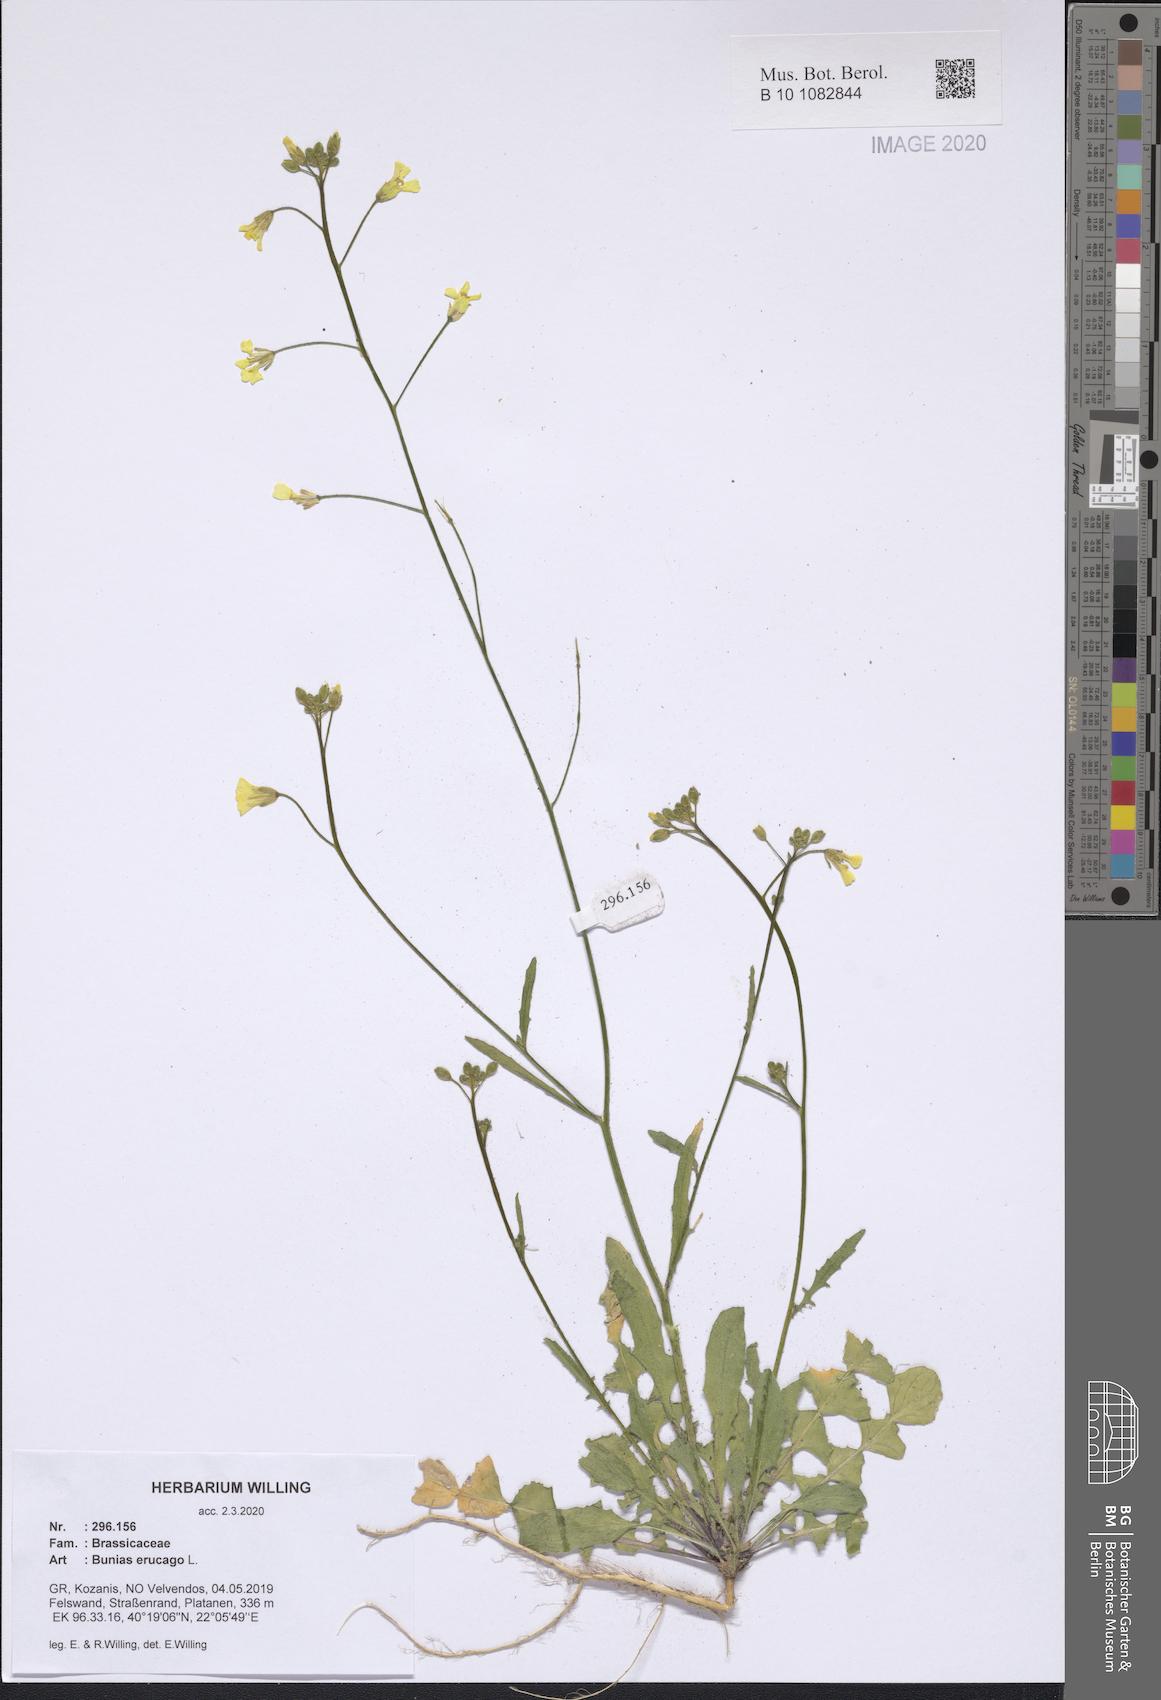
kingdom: Plantae
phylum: Tracheophyta
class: Magnoliopsida
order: Brassicales
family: Brassicaceae
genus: Bunias
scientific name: Bunias erucago
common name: Southern warty-cabbage
